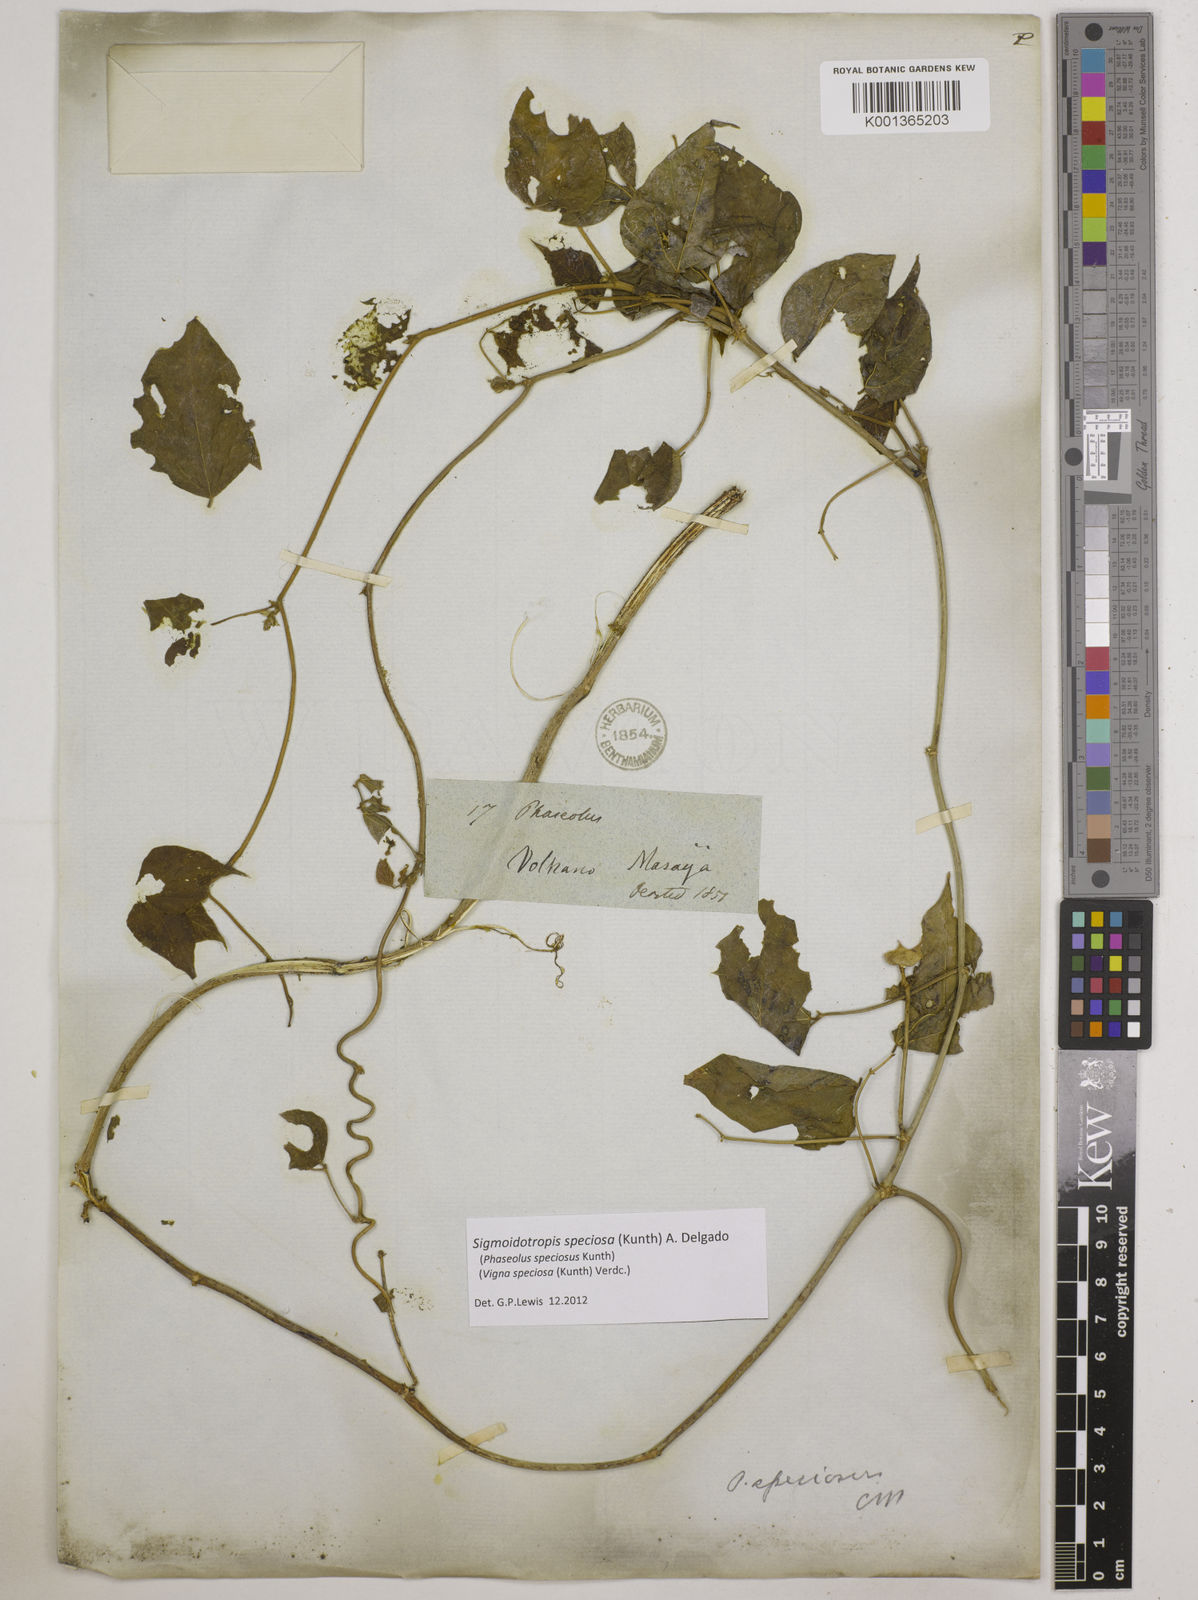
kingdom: Plantae
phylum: Tracheophyta
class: Magnoliopsida
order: Fabales
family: Fabaceae
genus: Sigmoidotropis
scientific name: Sigmoidotropis speciosa
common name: Snail flower
